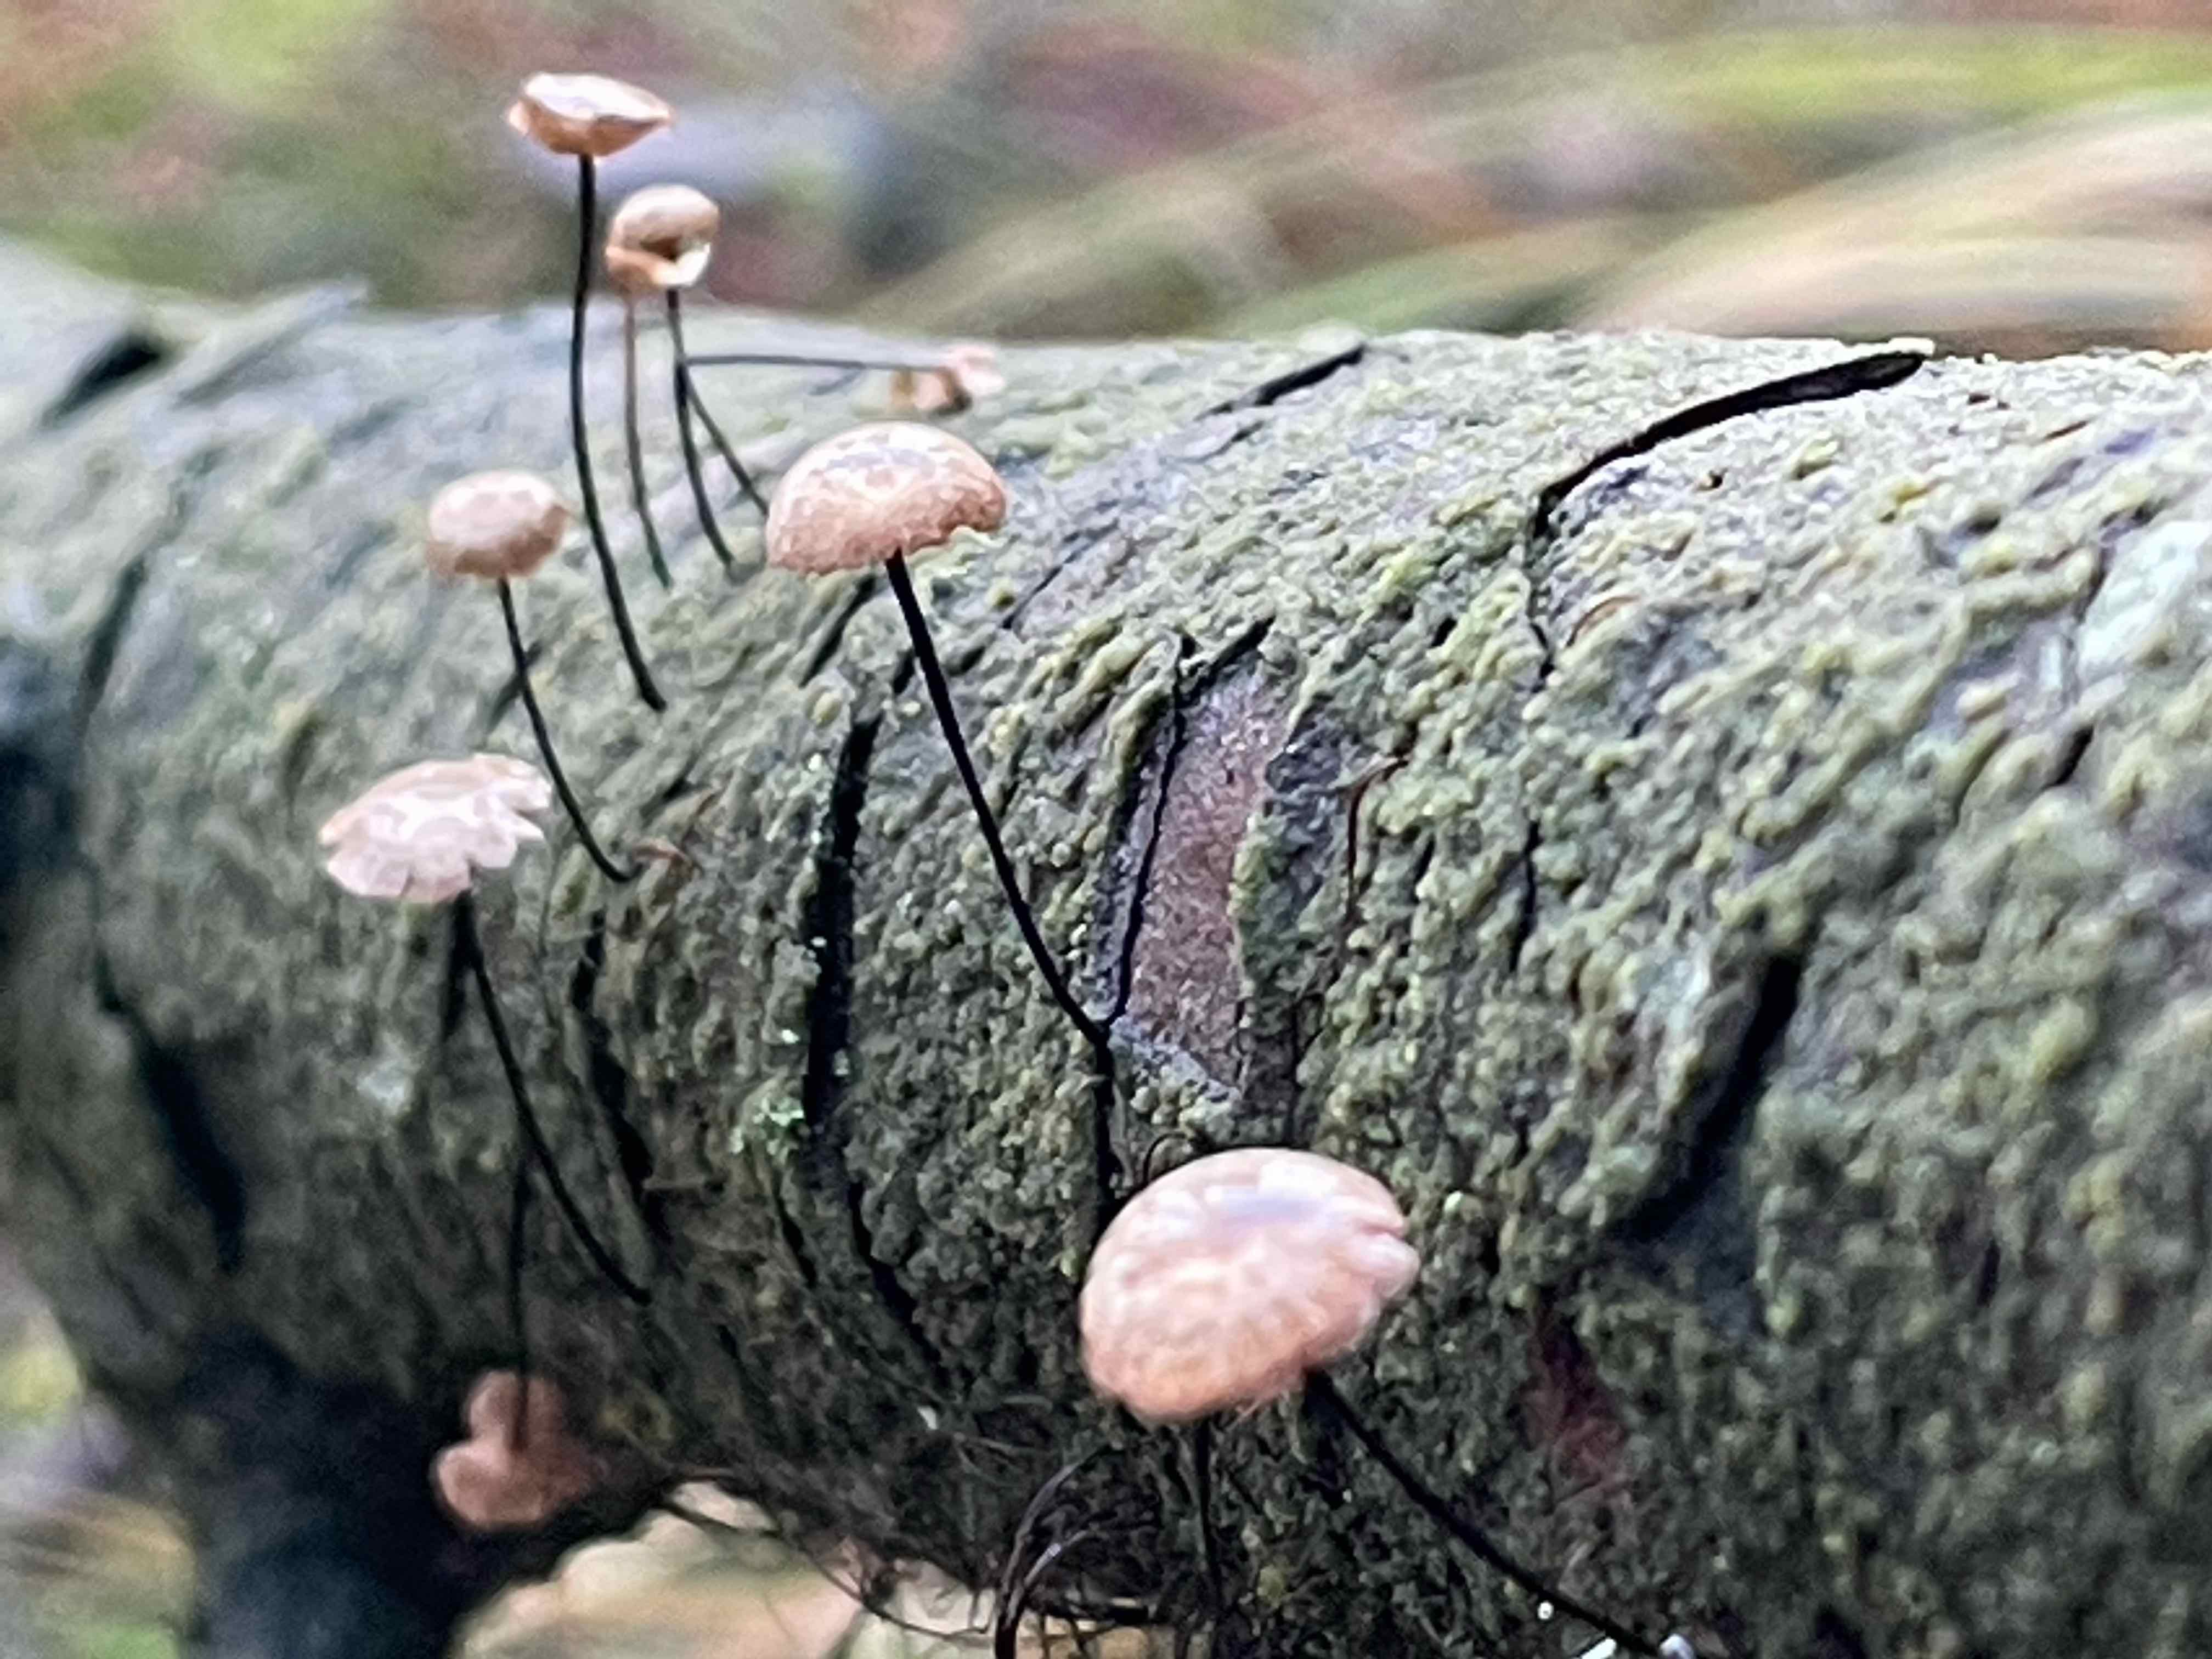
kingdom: Fungi
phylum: Basidiomycota
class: Agaricomycetes
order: Agaricales
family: Omphalotaceae
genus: Gymnopus
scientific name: Gymnopus androsaceus
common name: trådstokket fladhat
